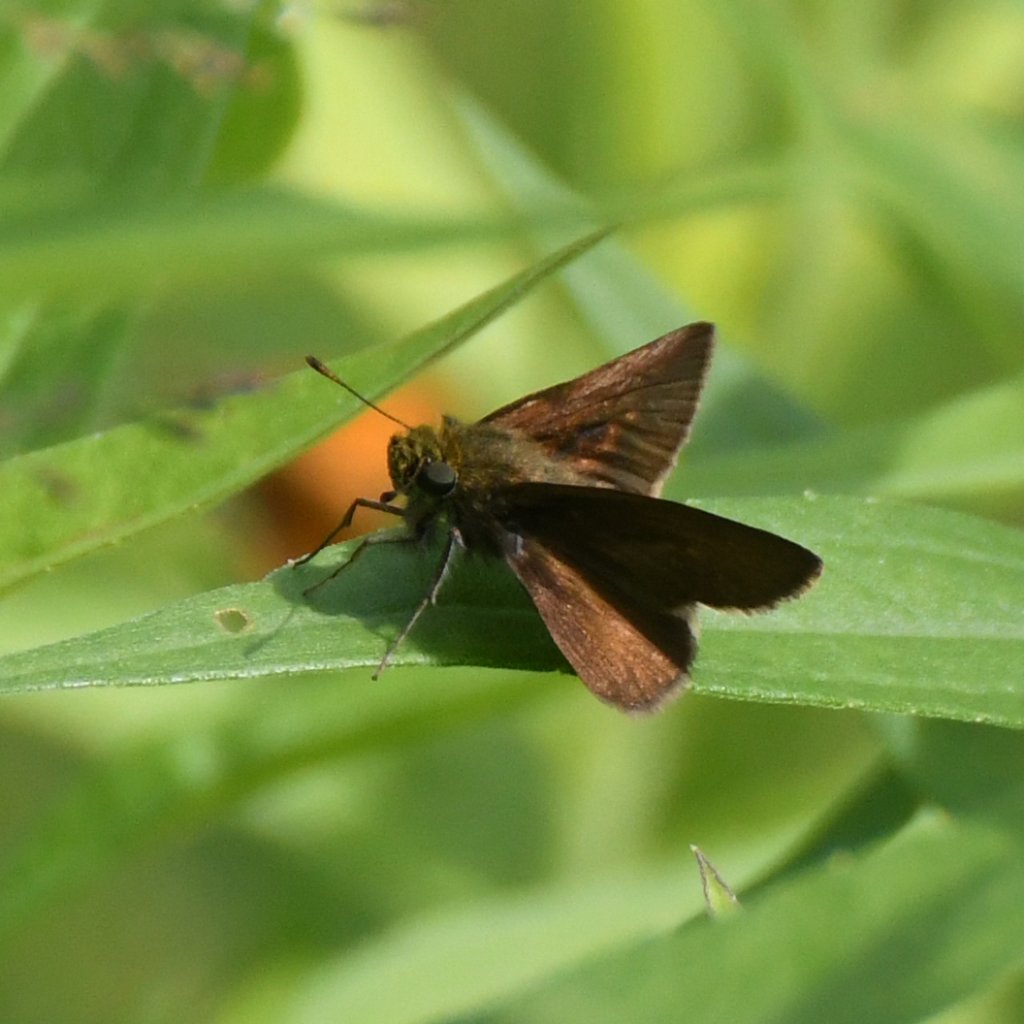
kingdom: Animalia
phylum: Arthropoda
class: Insecta
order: Lepidoptera
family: Hesperiidae
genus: Euphyes
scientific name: Euphyes vestris
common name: Dun Skipper
